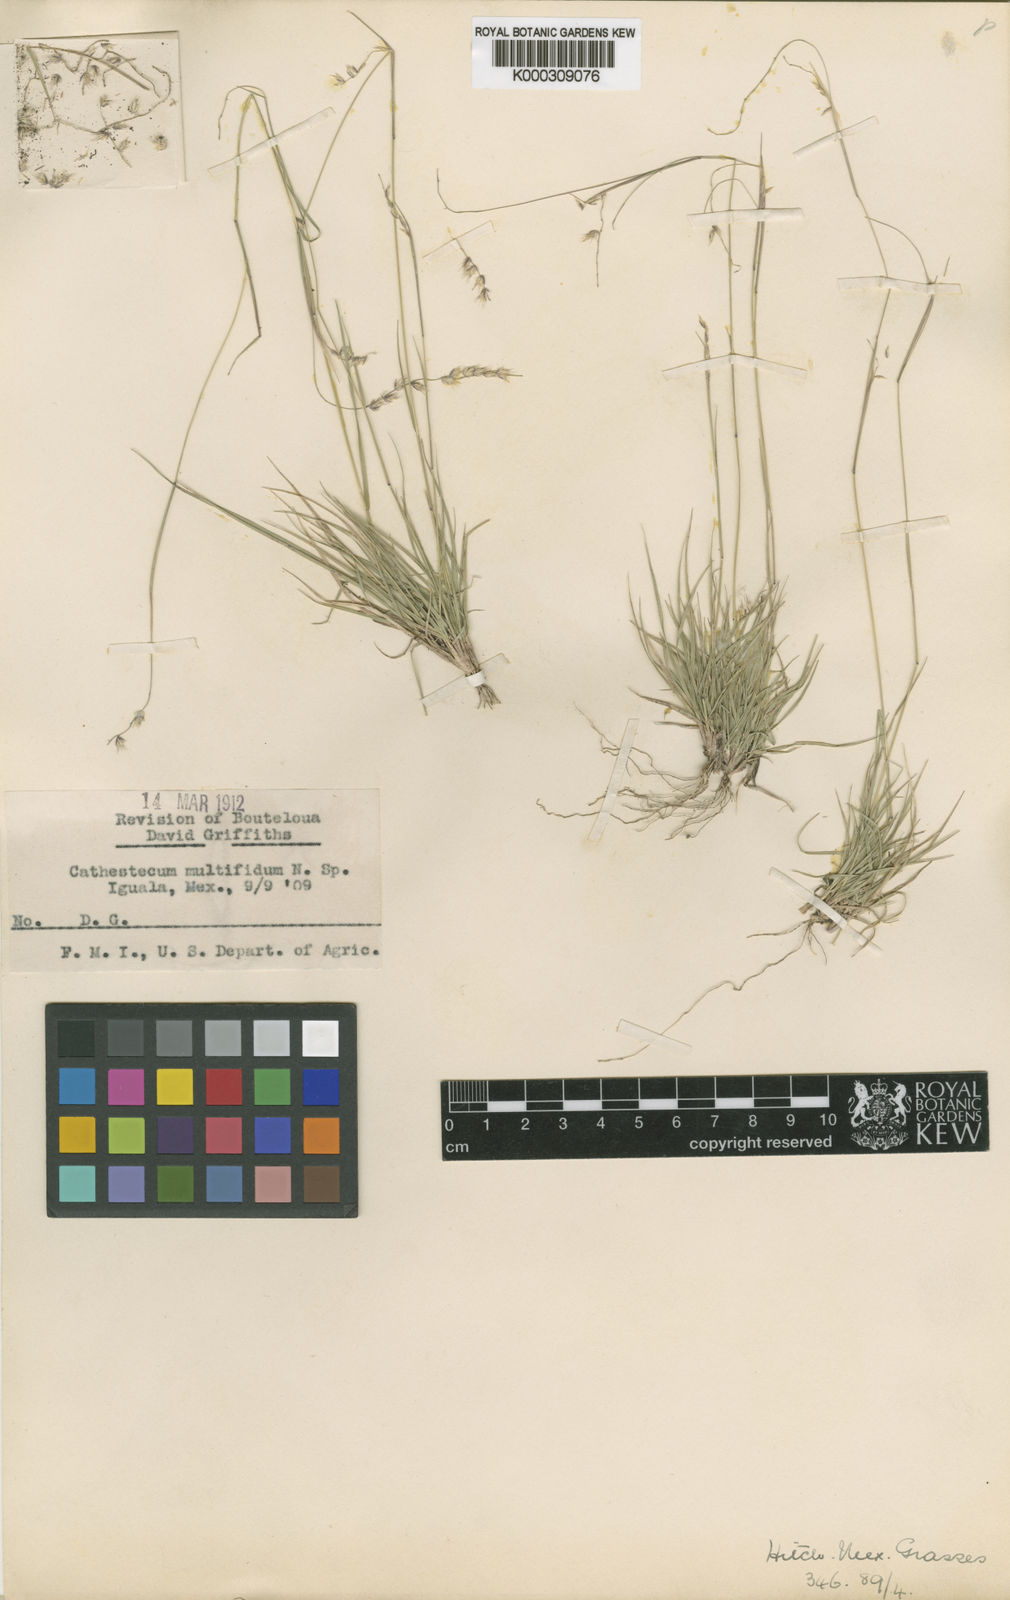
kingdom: Plantae
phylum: Tracheophyta
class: Liliopsida
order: Poales
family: Poaceae
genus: Bouteloua
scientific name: Bouteloua multifida
